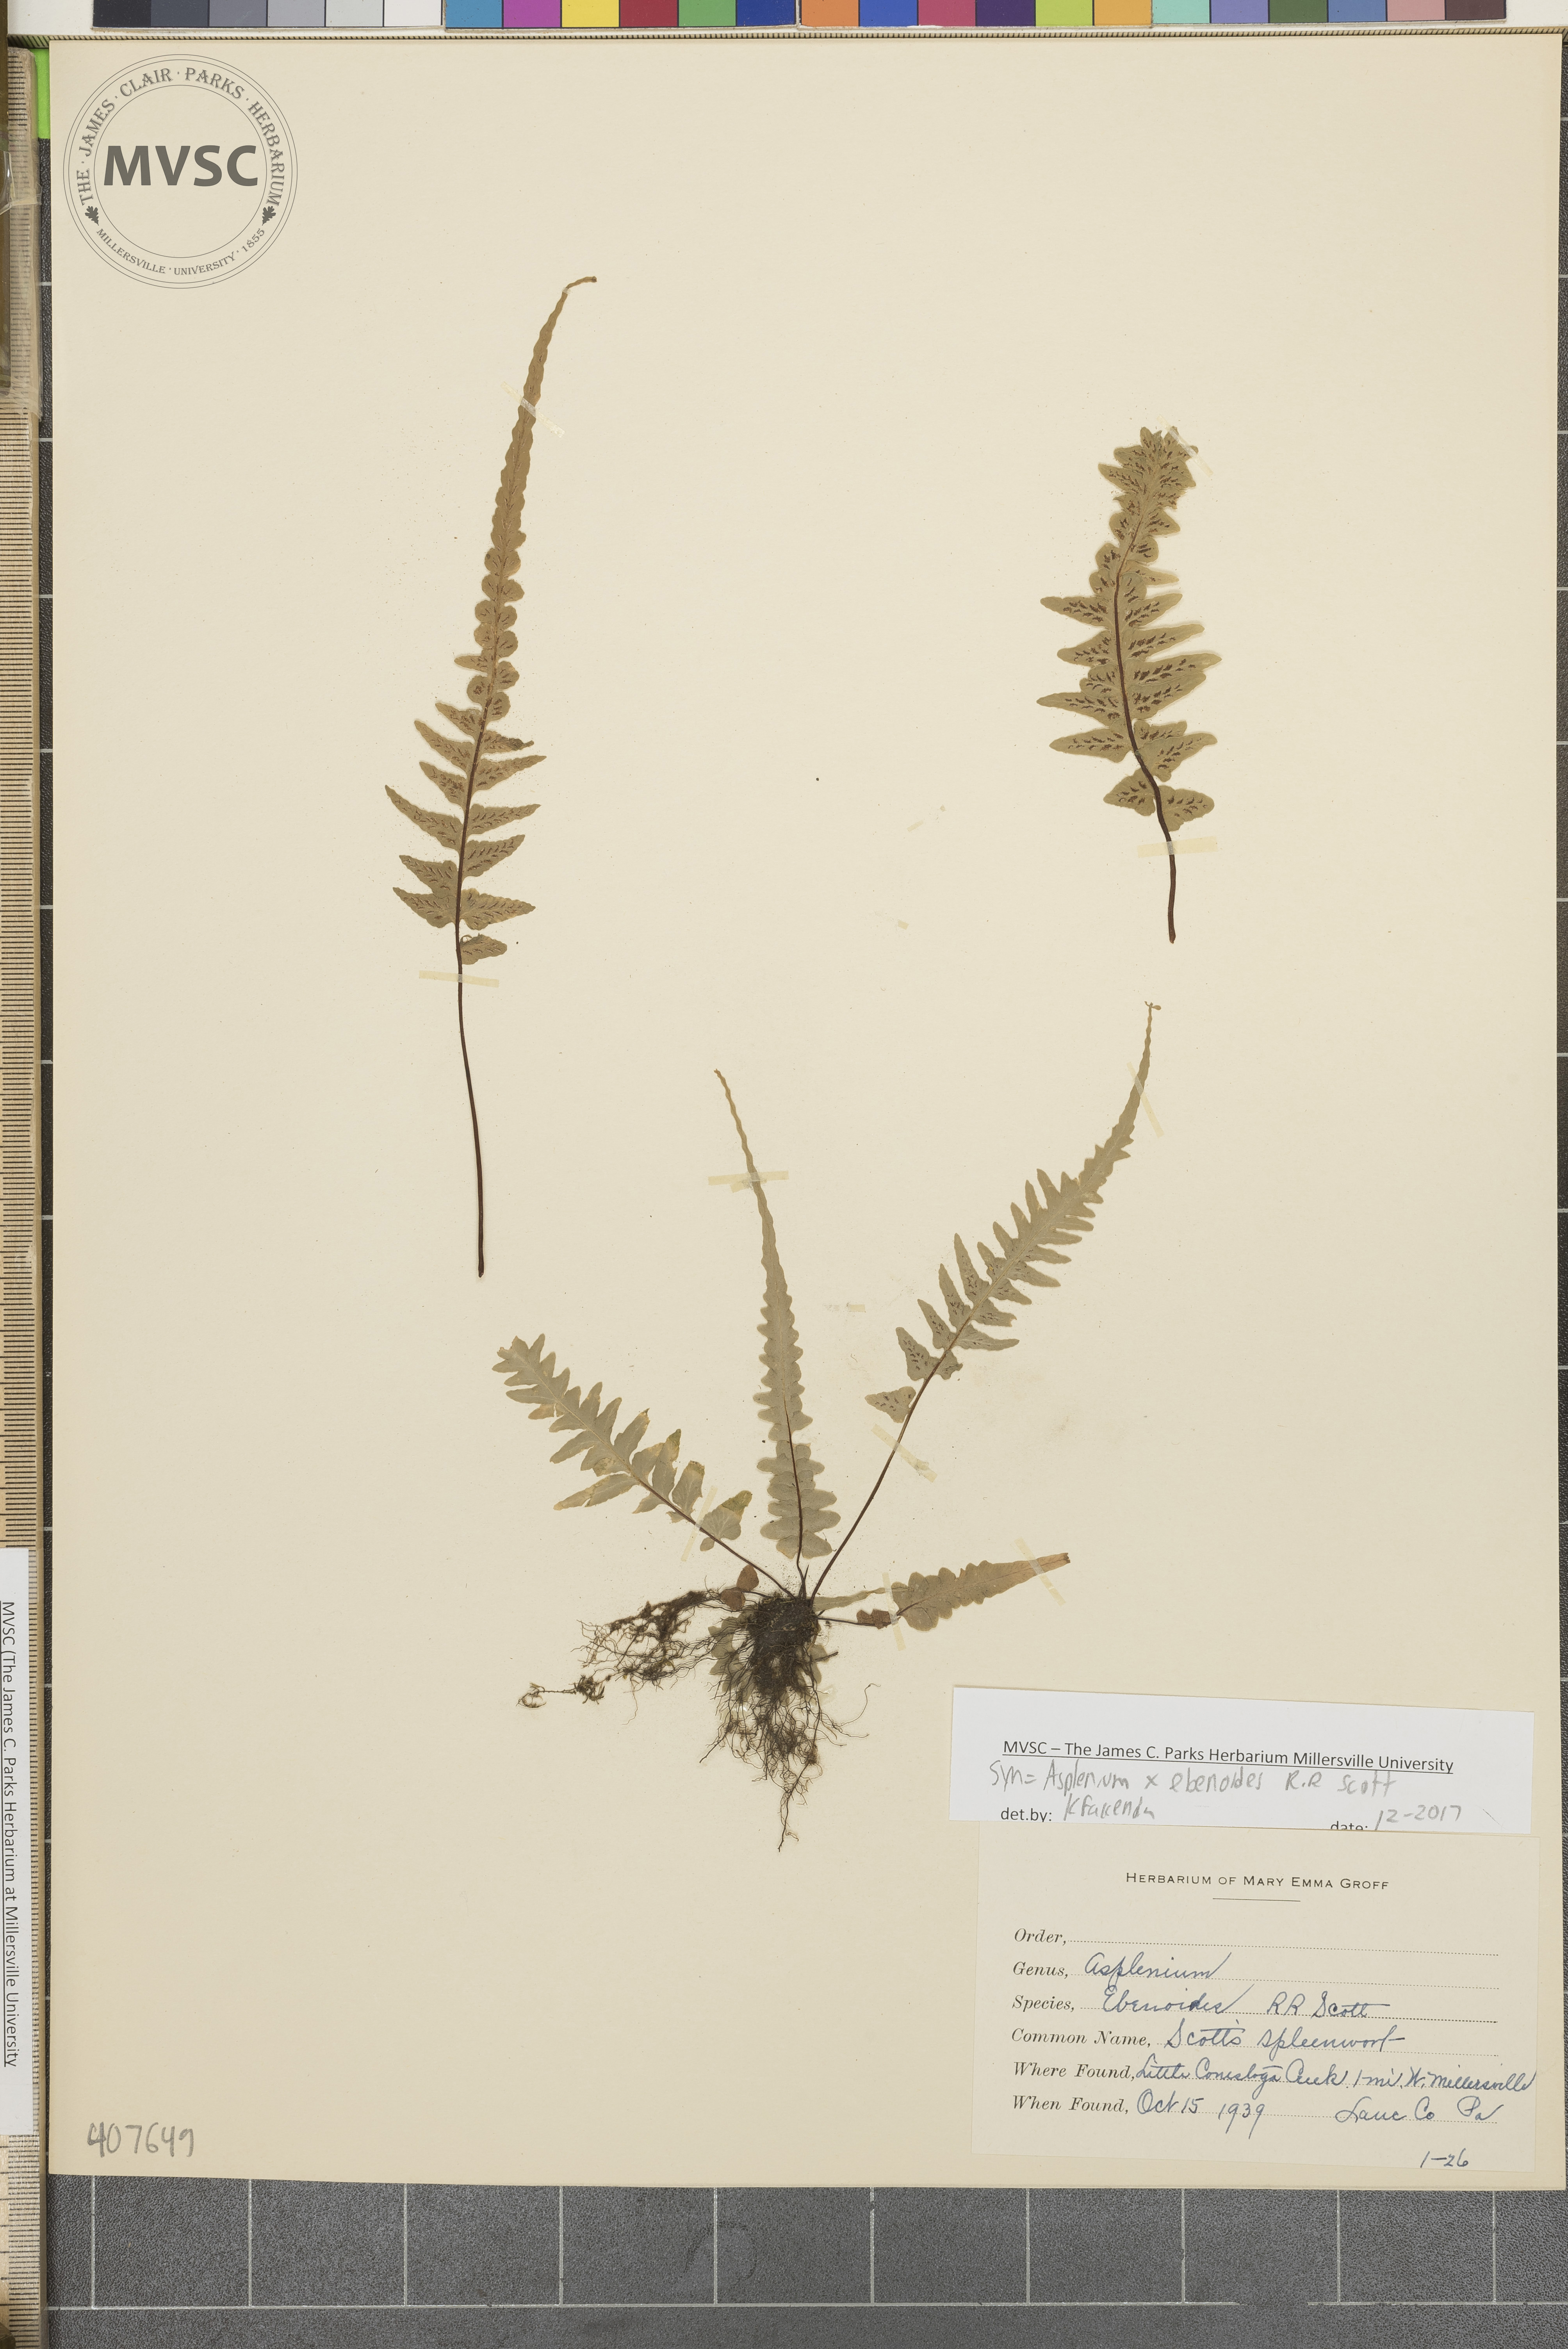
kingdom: Plantae
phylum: Tracheophyta
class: Polypodiopsida
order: Polypodiales
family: Aspleniaceae
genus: Asplenium
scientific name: Asplenium ebenoides
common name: Dragon-tail fern
